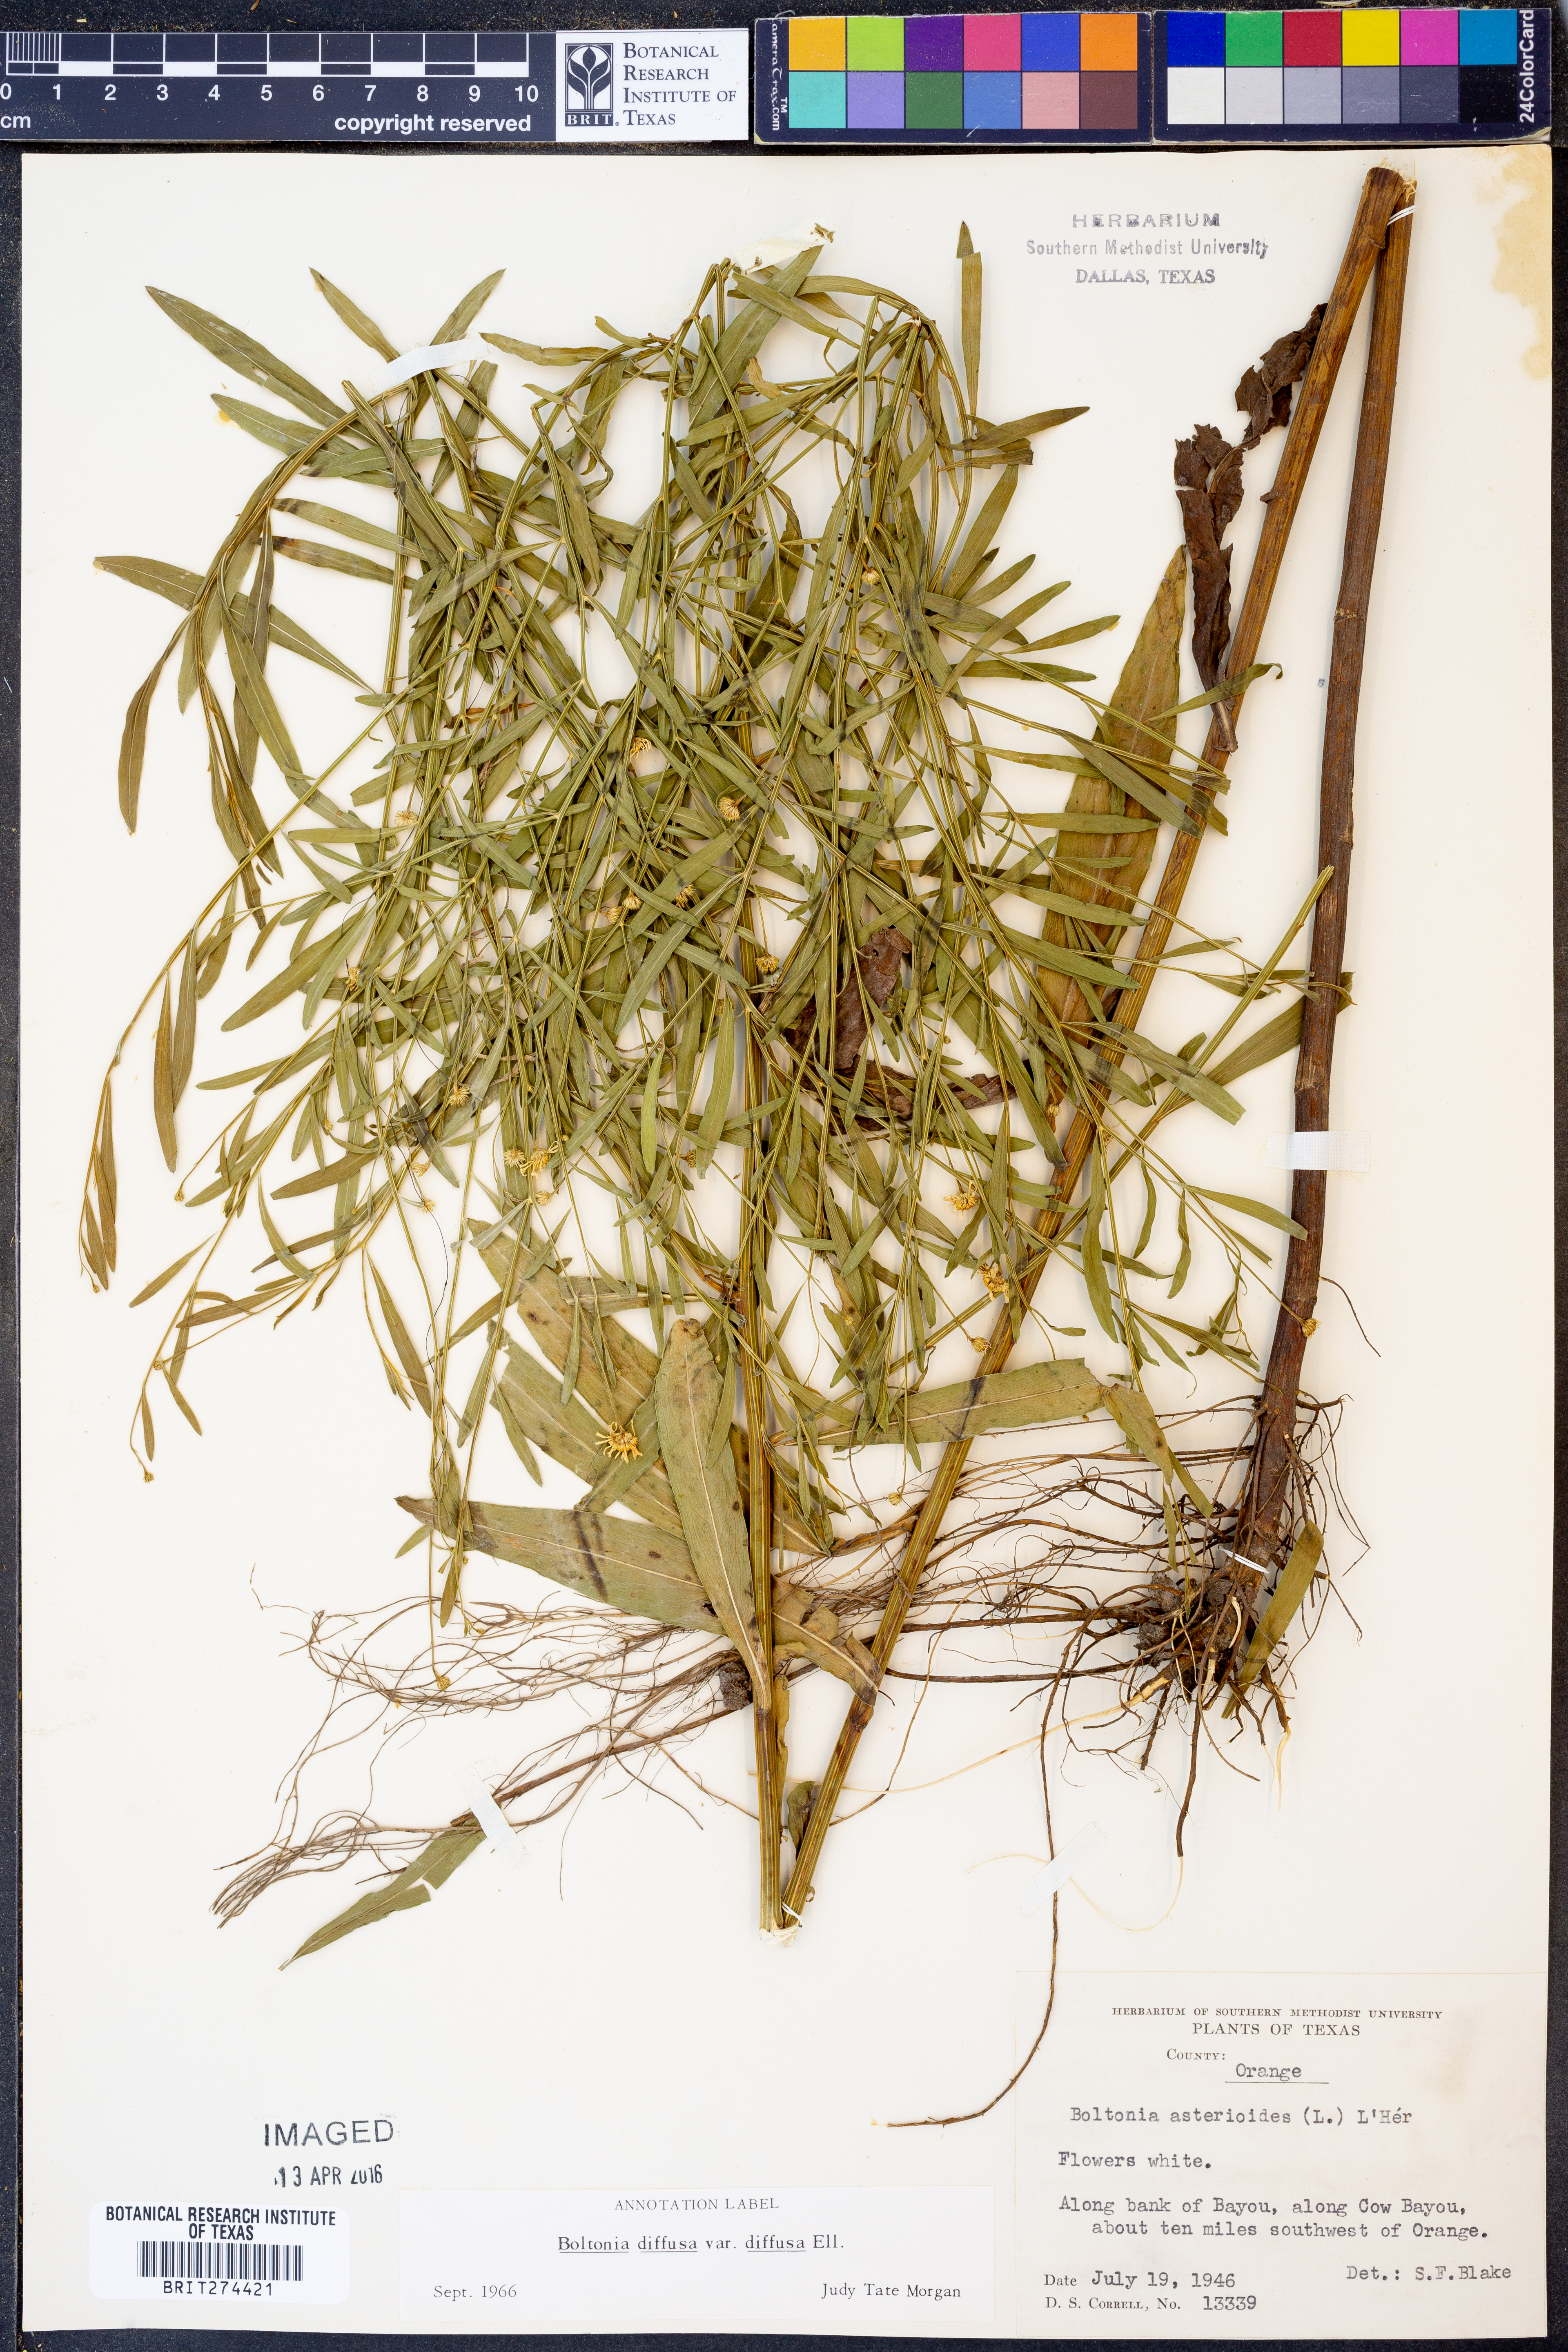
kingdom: Plantae
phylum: Tracheophyta
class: Magnoliopsida
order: Asterales
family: Asteraceae
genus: Boltonia
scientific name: Boltonia diffusa
